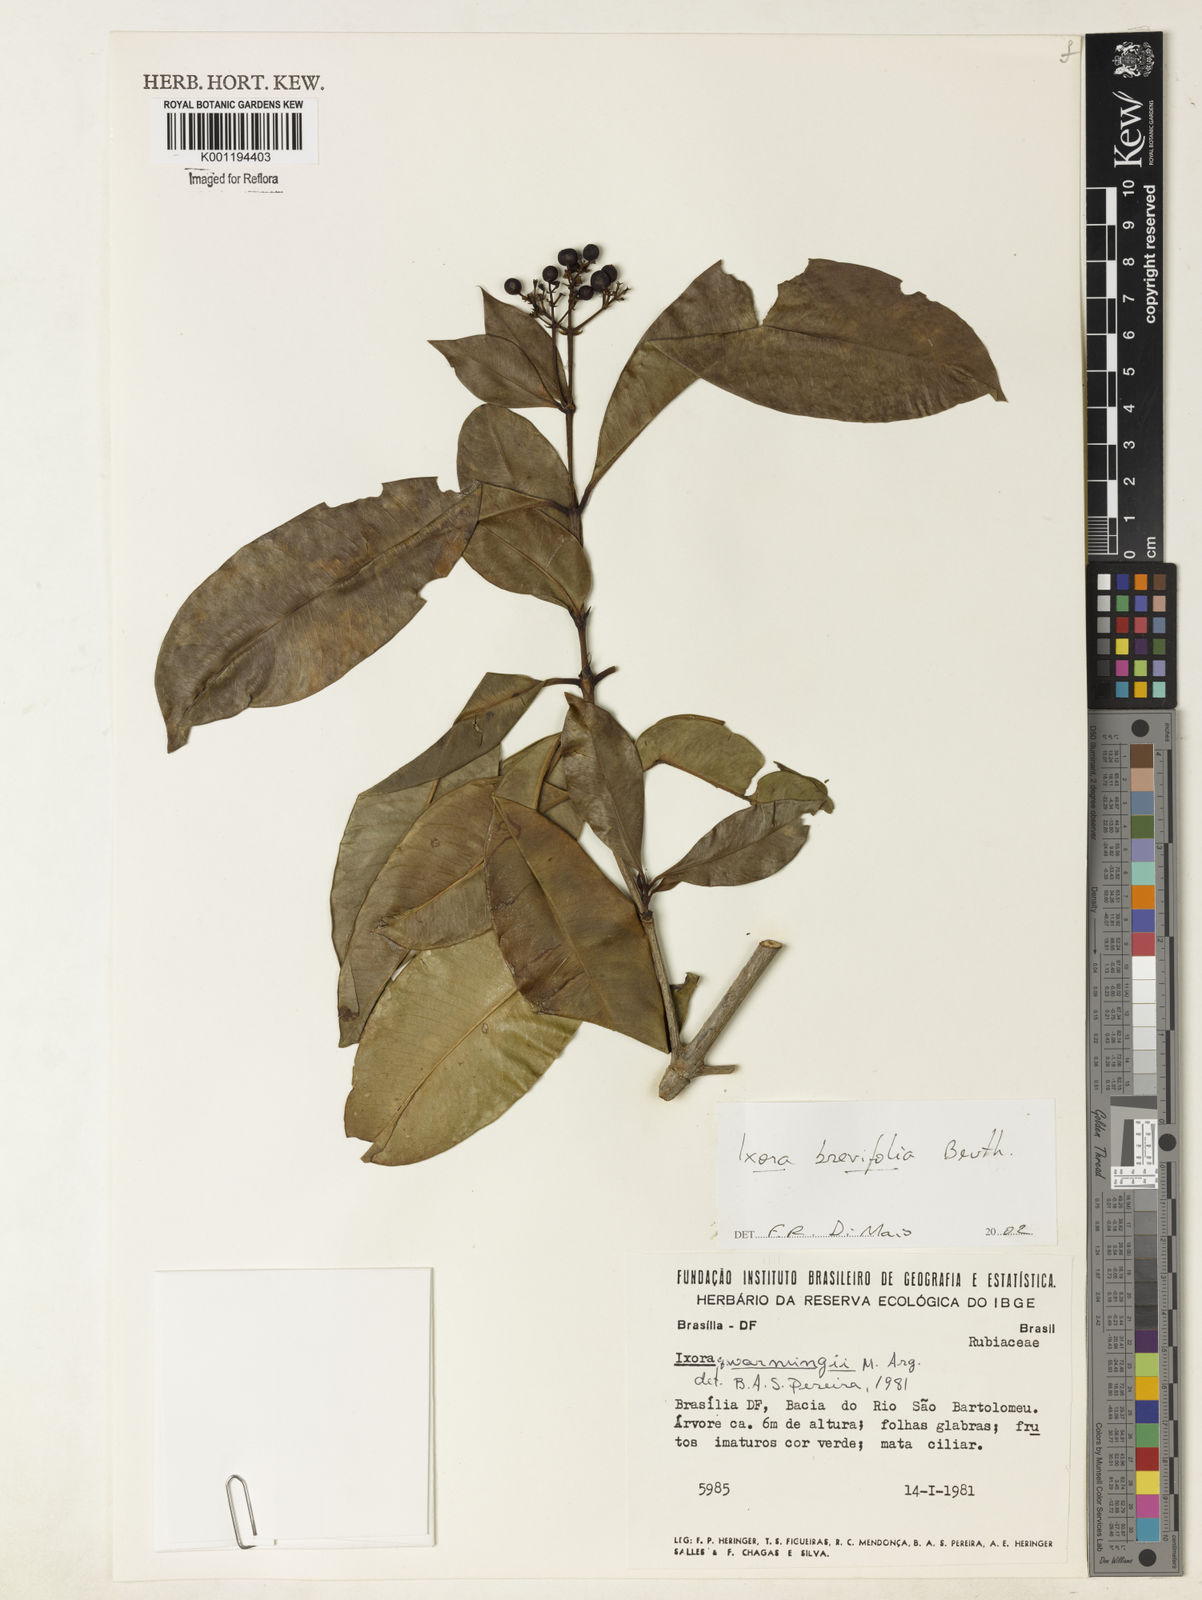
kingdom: Plantae
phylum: Tracheophyta
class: Magnoliopsida
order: Gentianales
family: Rubiaceae
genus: Ixora
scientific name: Ixora brevifolia
